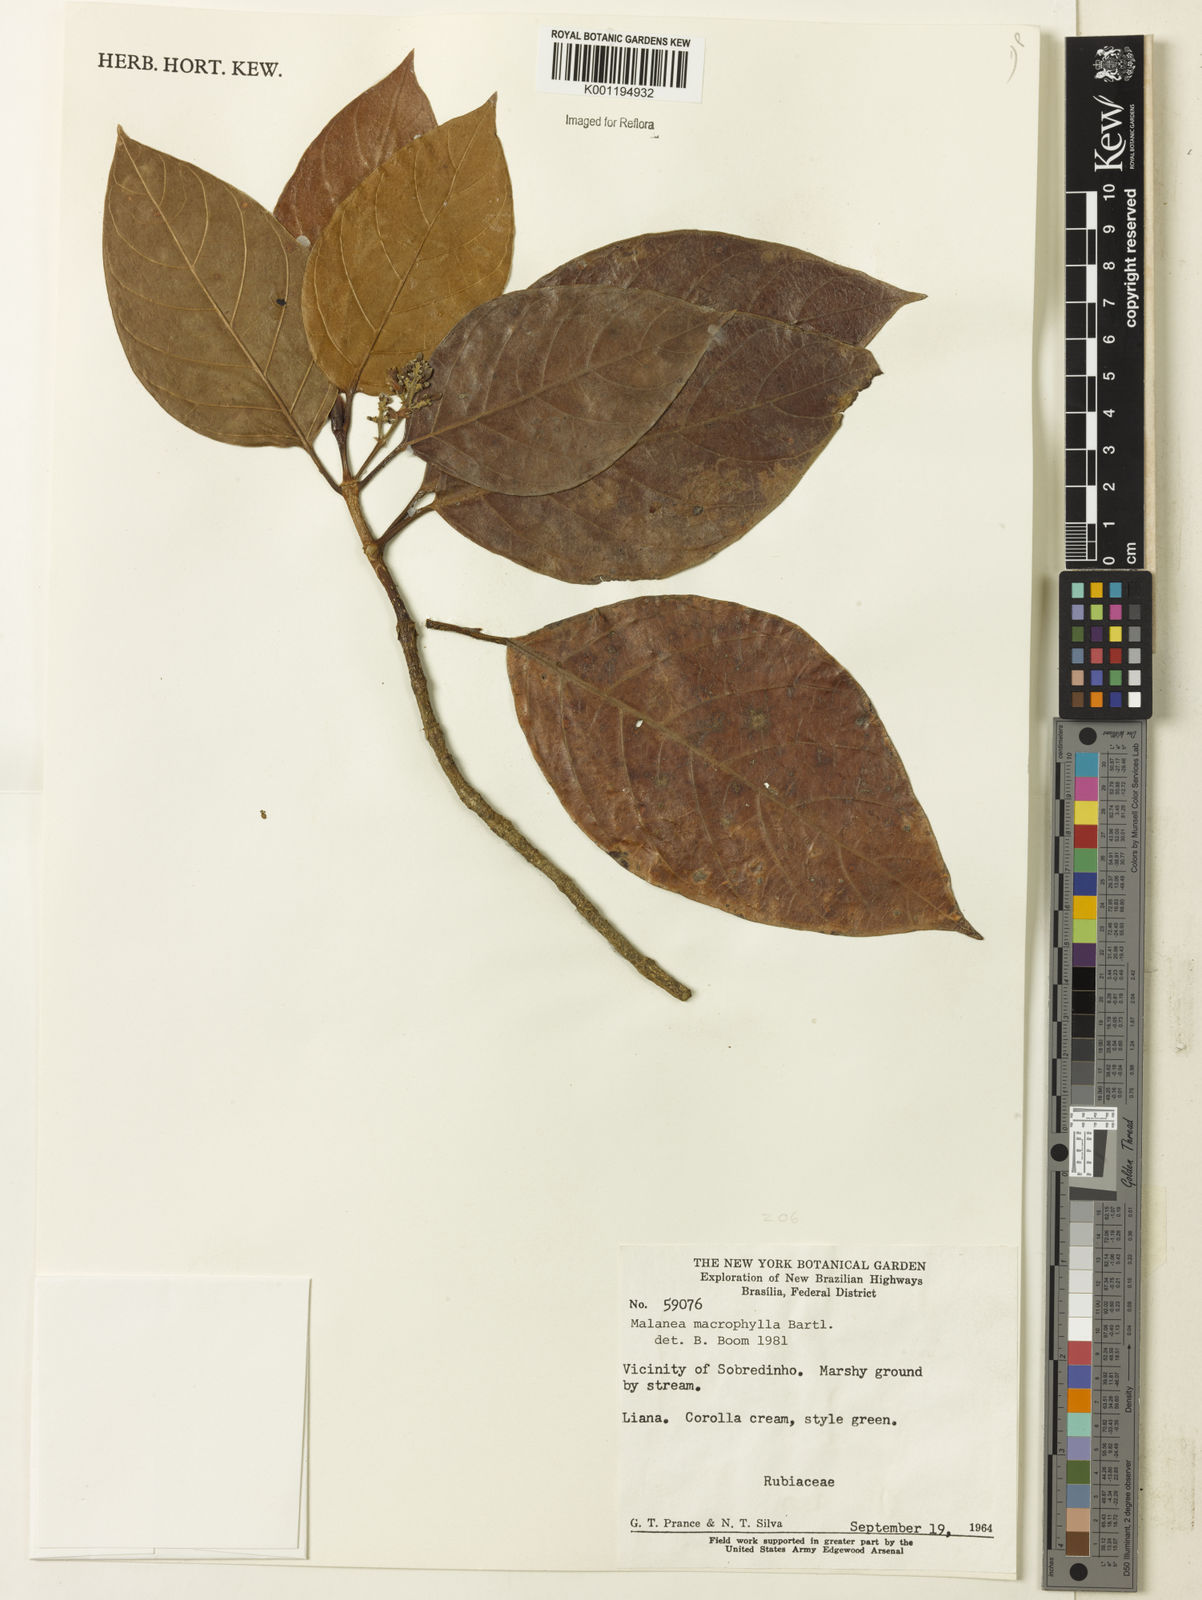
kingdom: Plantae
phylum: Tracheophyta
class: Magnoliopsida
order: Gentianales
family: Rubiaceae
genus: Malanea
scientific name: Malanea glabra
